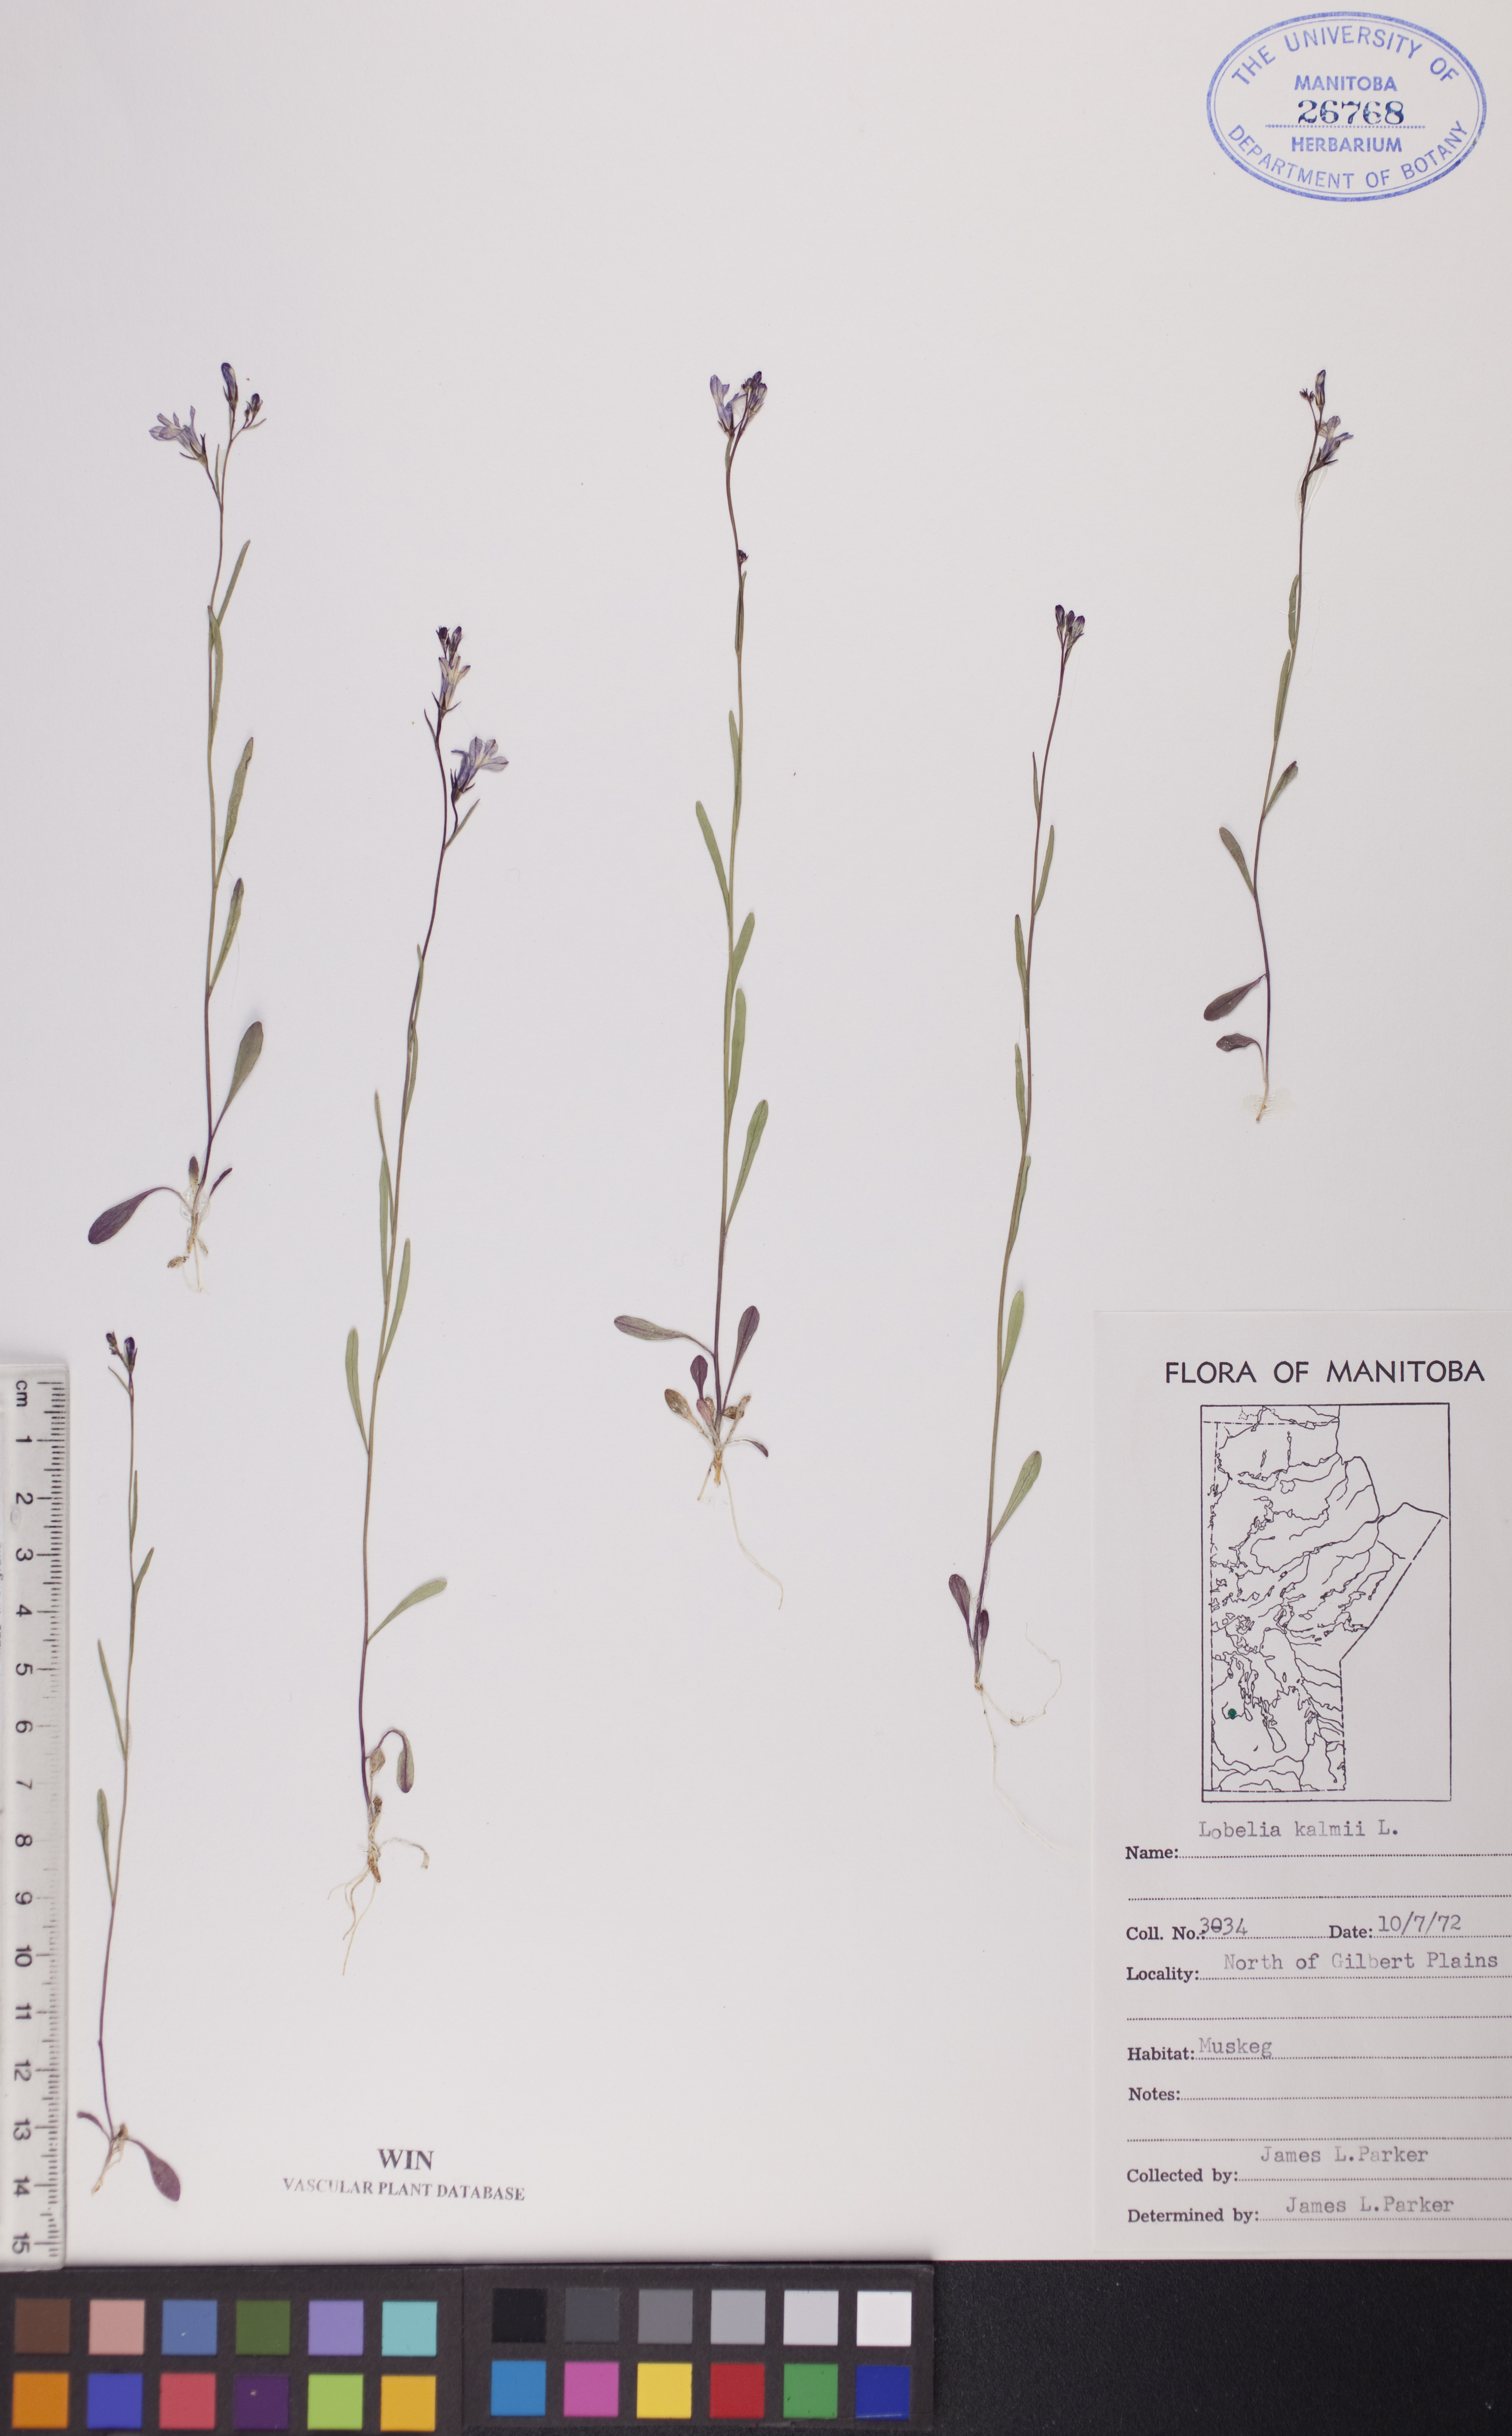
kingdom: Plantae
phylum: Tracheophyta
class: Magnoliopsida
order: Asterales
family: Campanulaceae
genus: Lobelia
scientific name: Lobelia kalmii
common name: Kalm's lobelia
